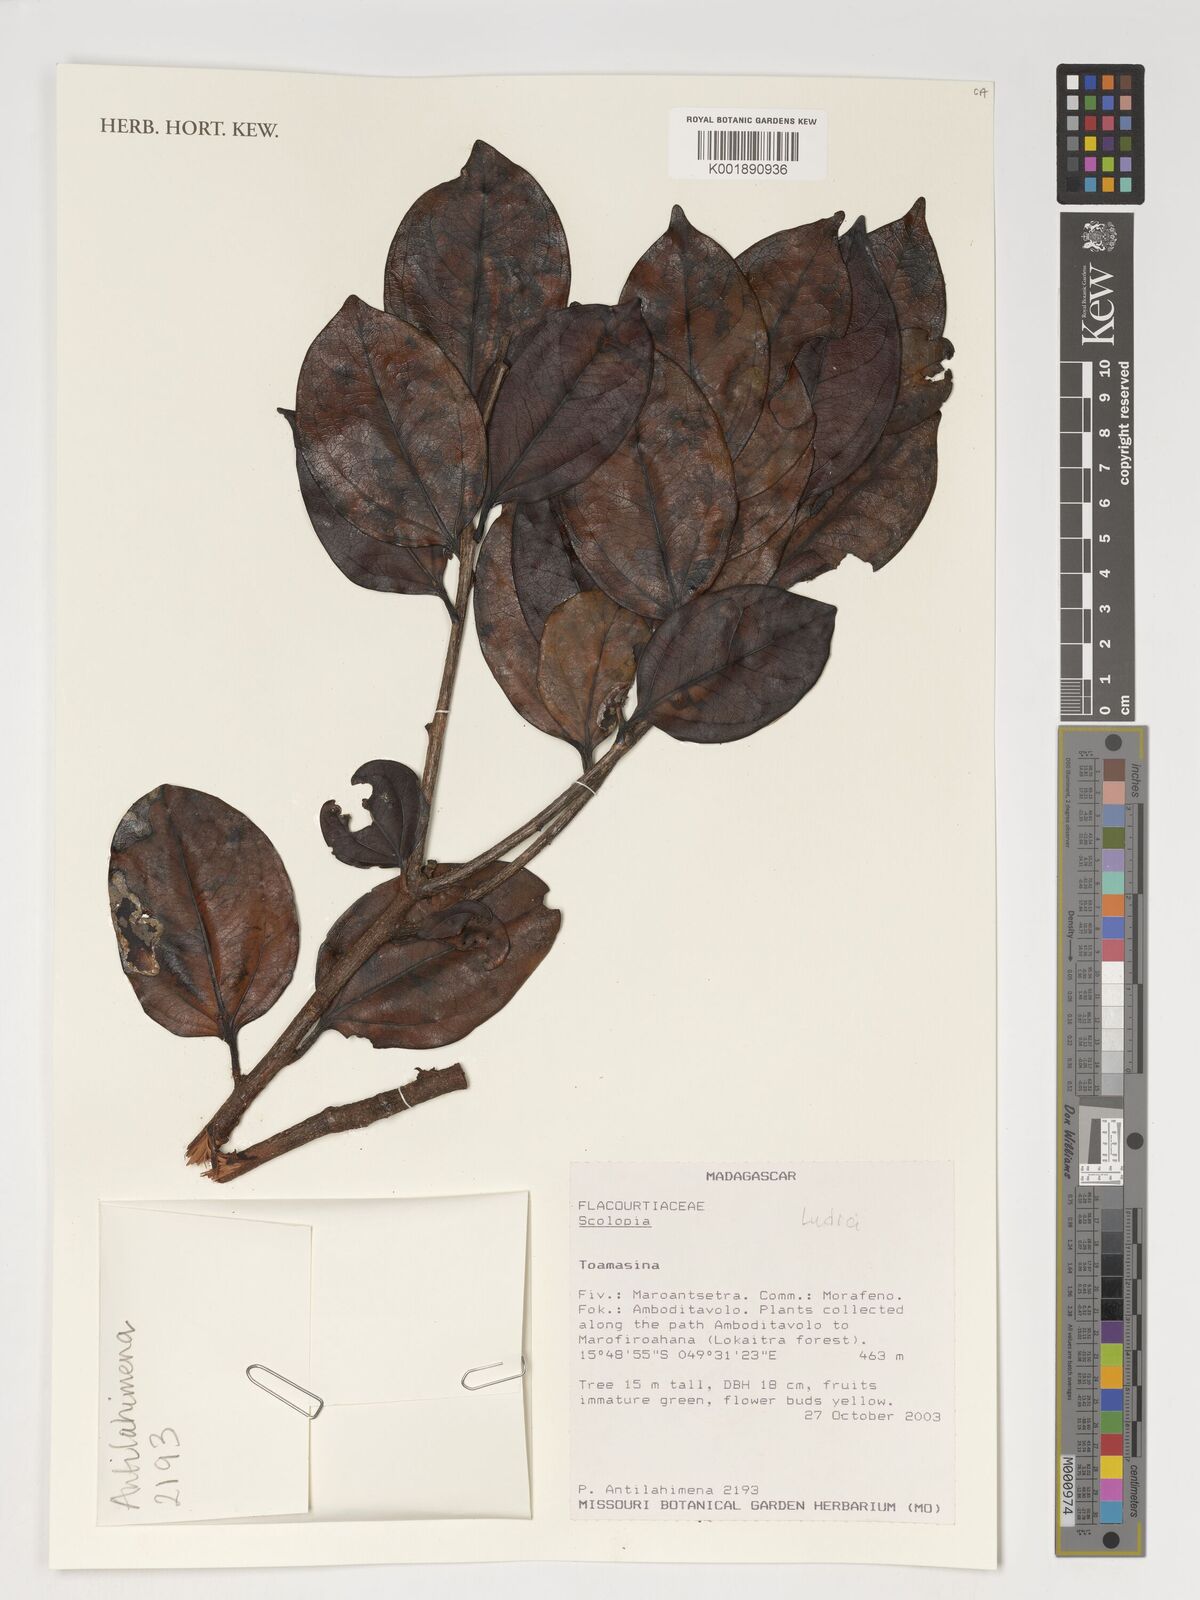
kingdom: Plantae
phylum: Tracheophyta
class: Magnoliopsida
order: Malpighiales
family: Salicaceae
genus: Scolopia
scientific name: Scolopia
